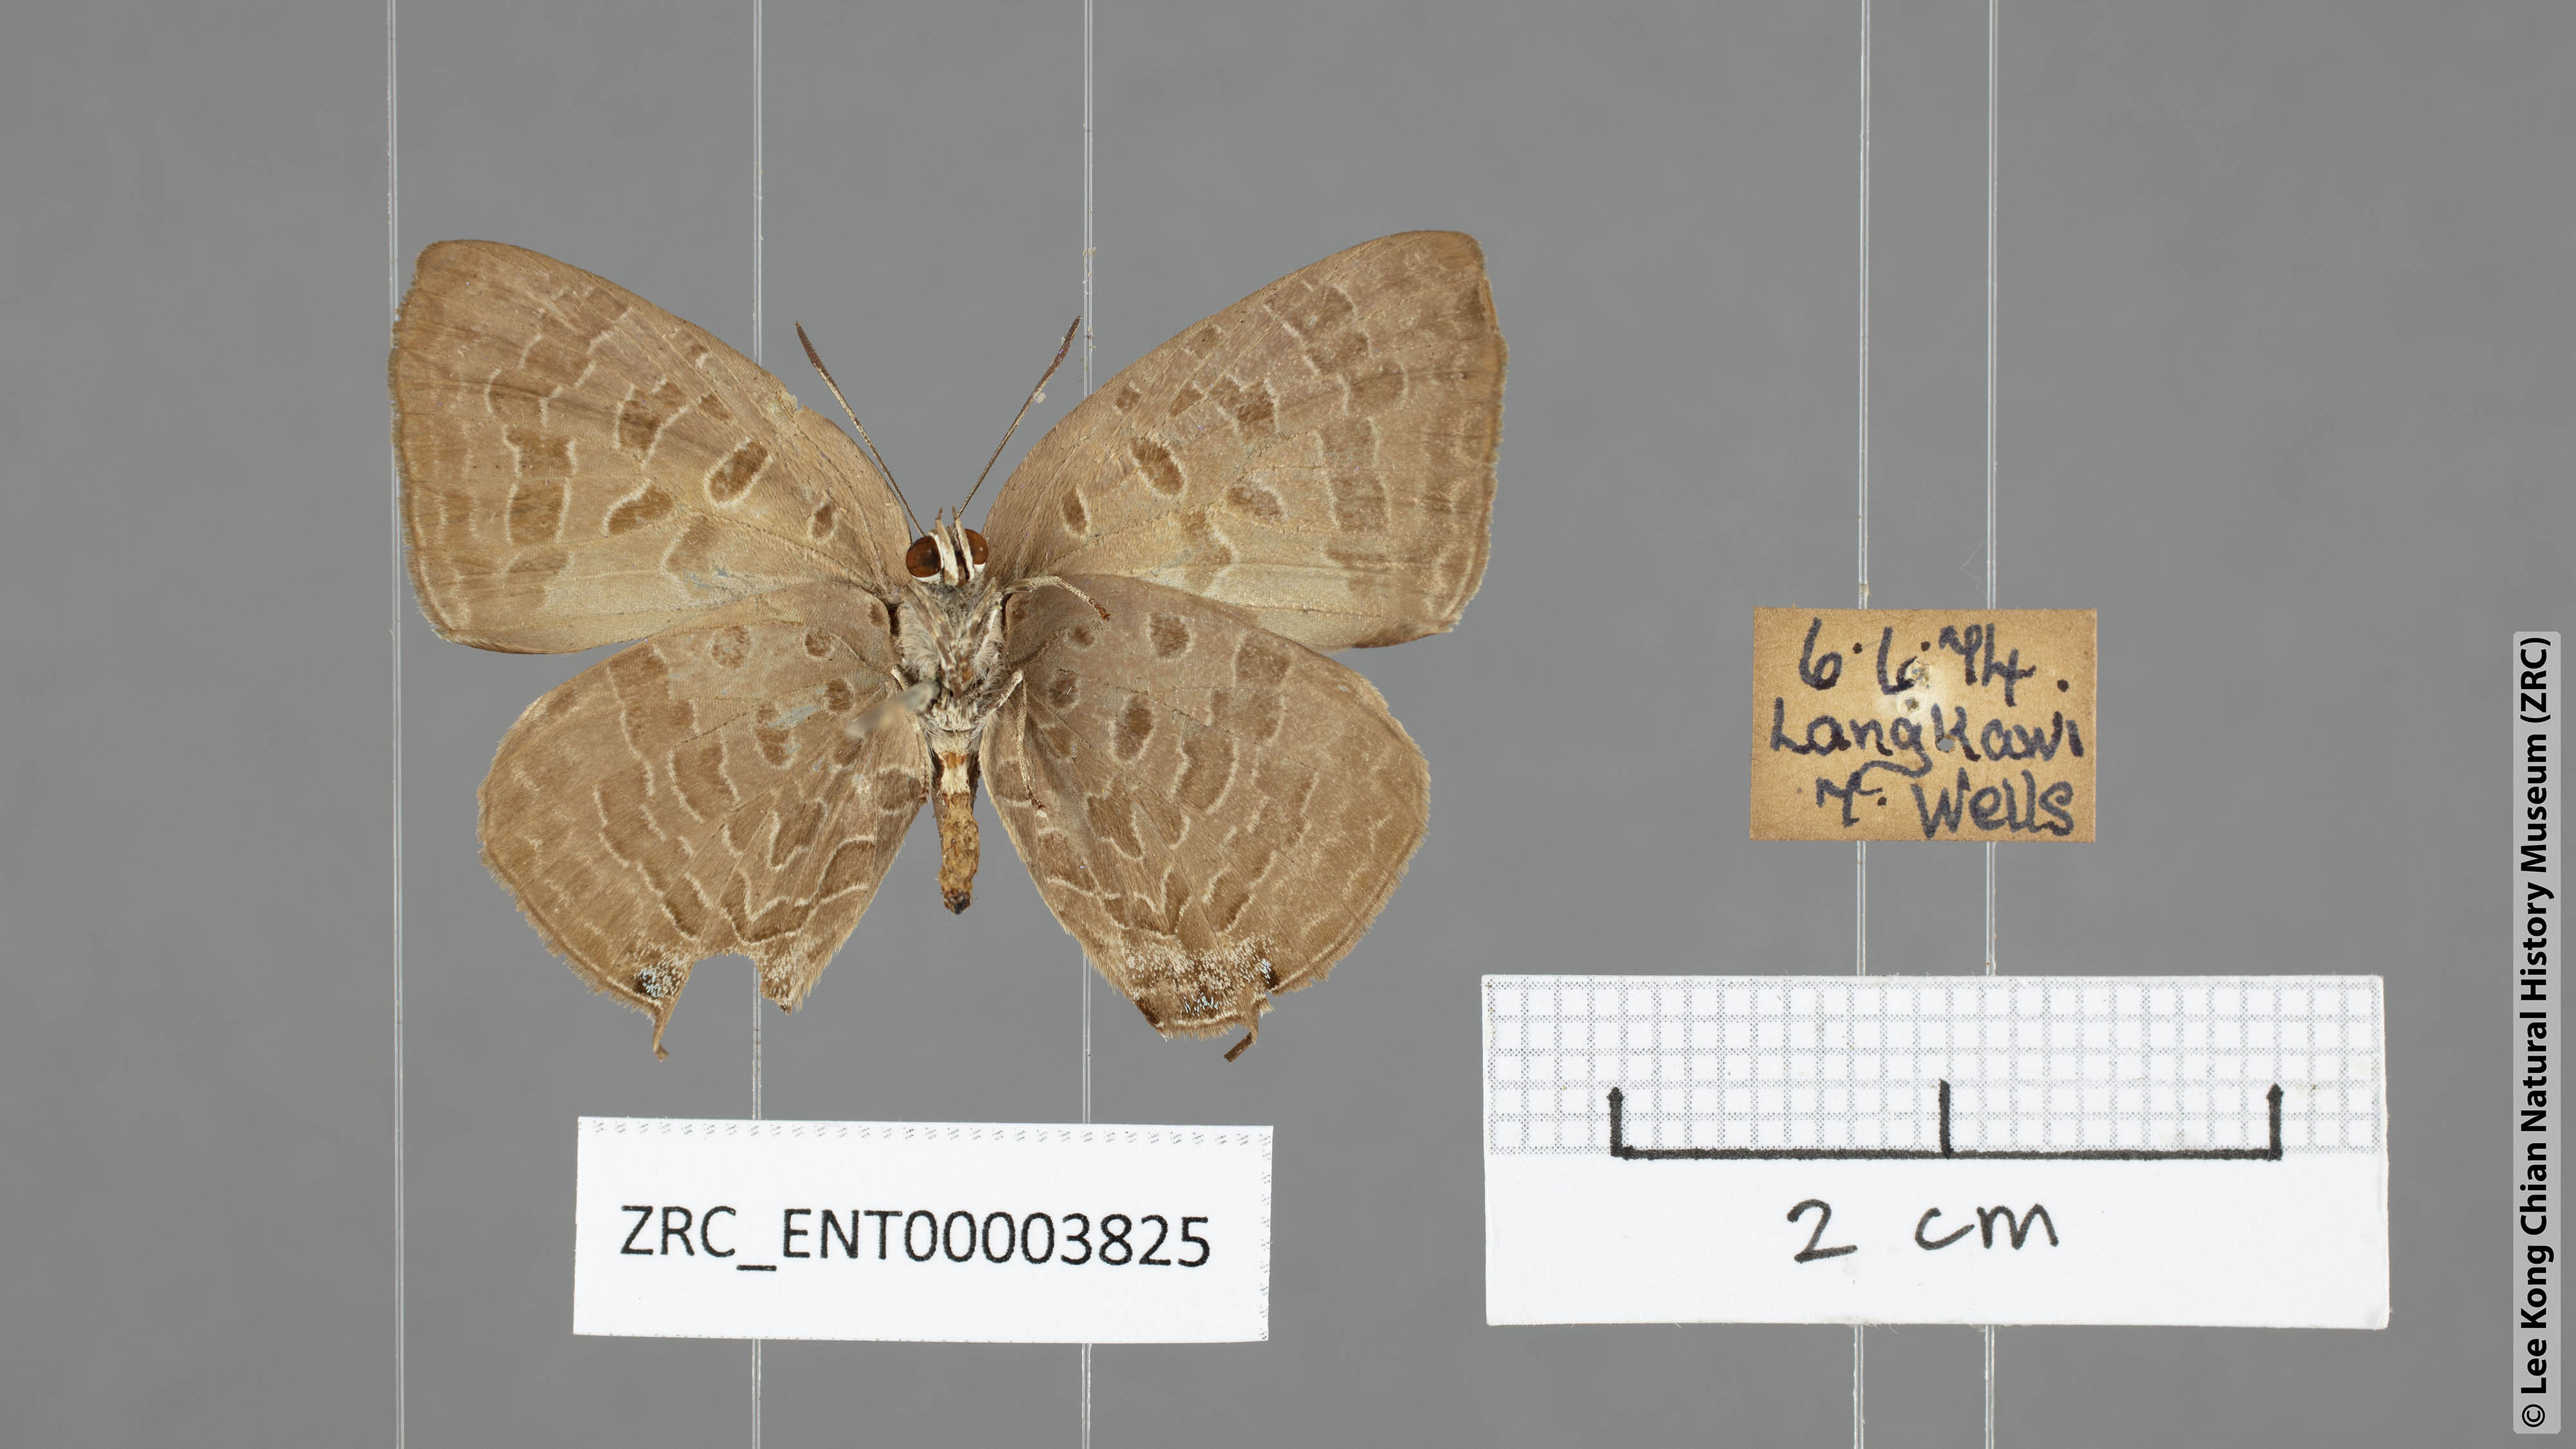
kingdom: Animalia
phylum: Arthropoda
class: Insecta
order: Lepidoptera
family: Lycaenidae
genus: Arhopala
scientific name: Arhopala aida
